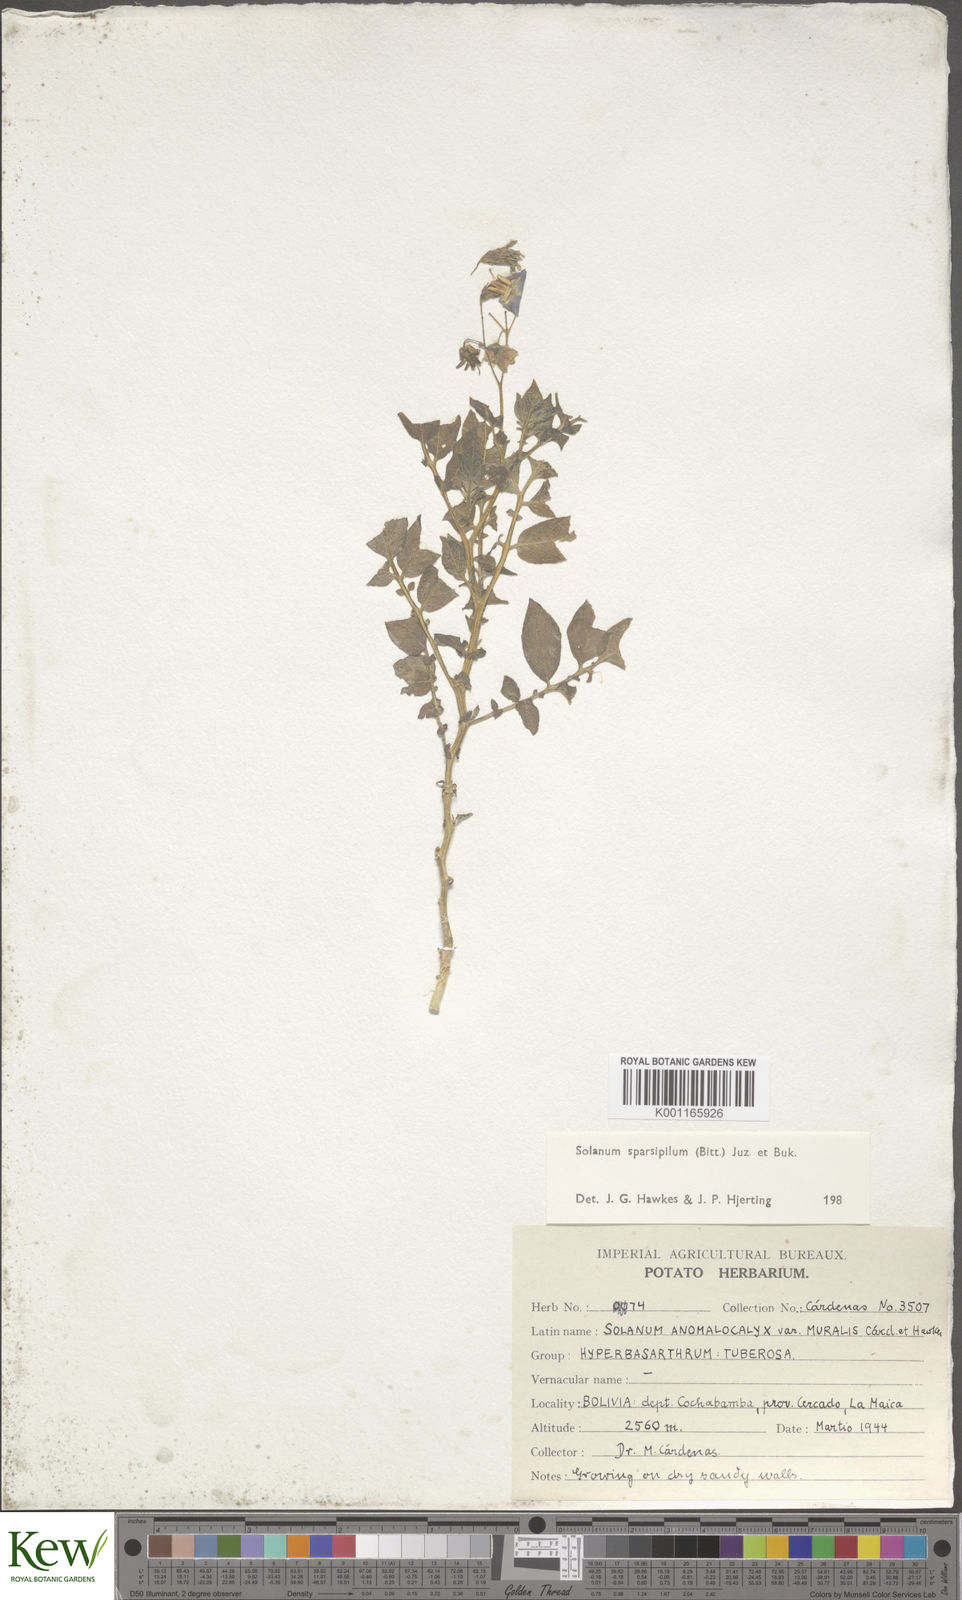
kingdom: Plantae
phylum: Tracheophyta
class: Magnoliopsida
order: Solanales
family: Solanaceae
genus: Solanum
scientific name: Solanum brevicaule
